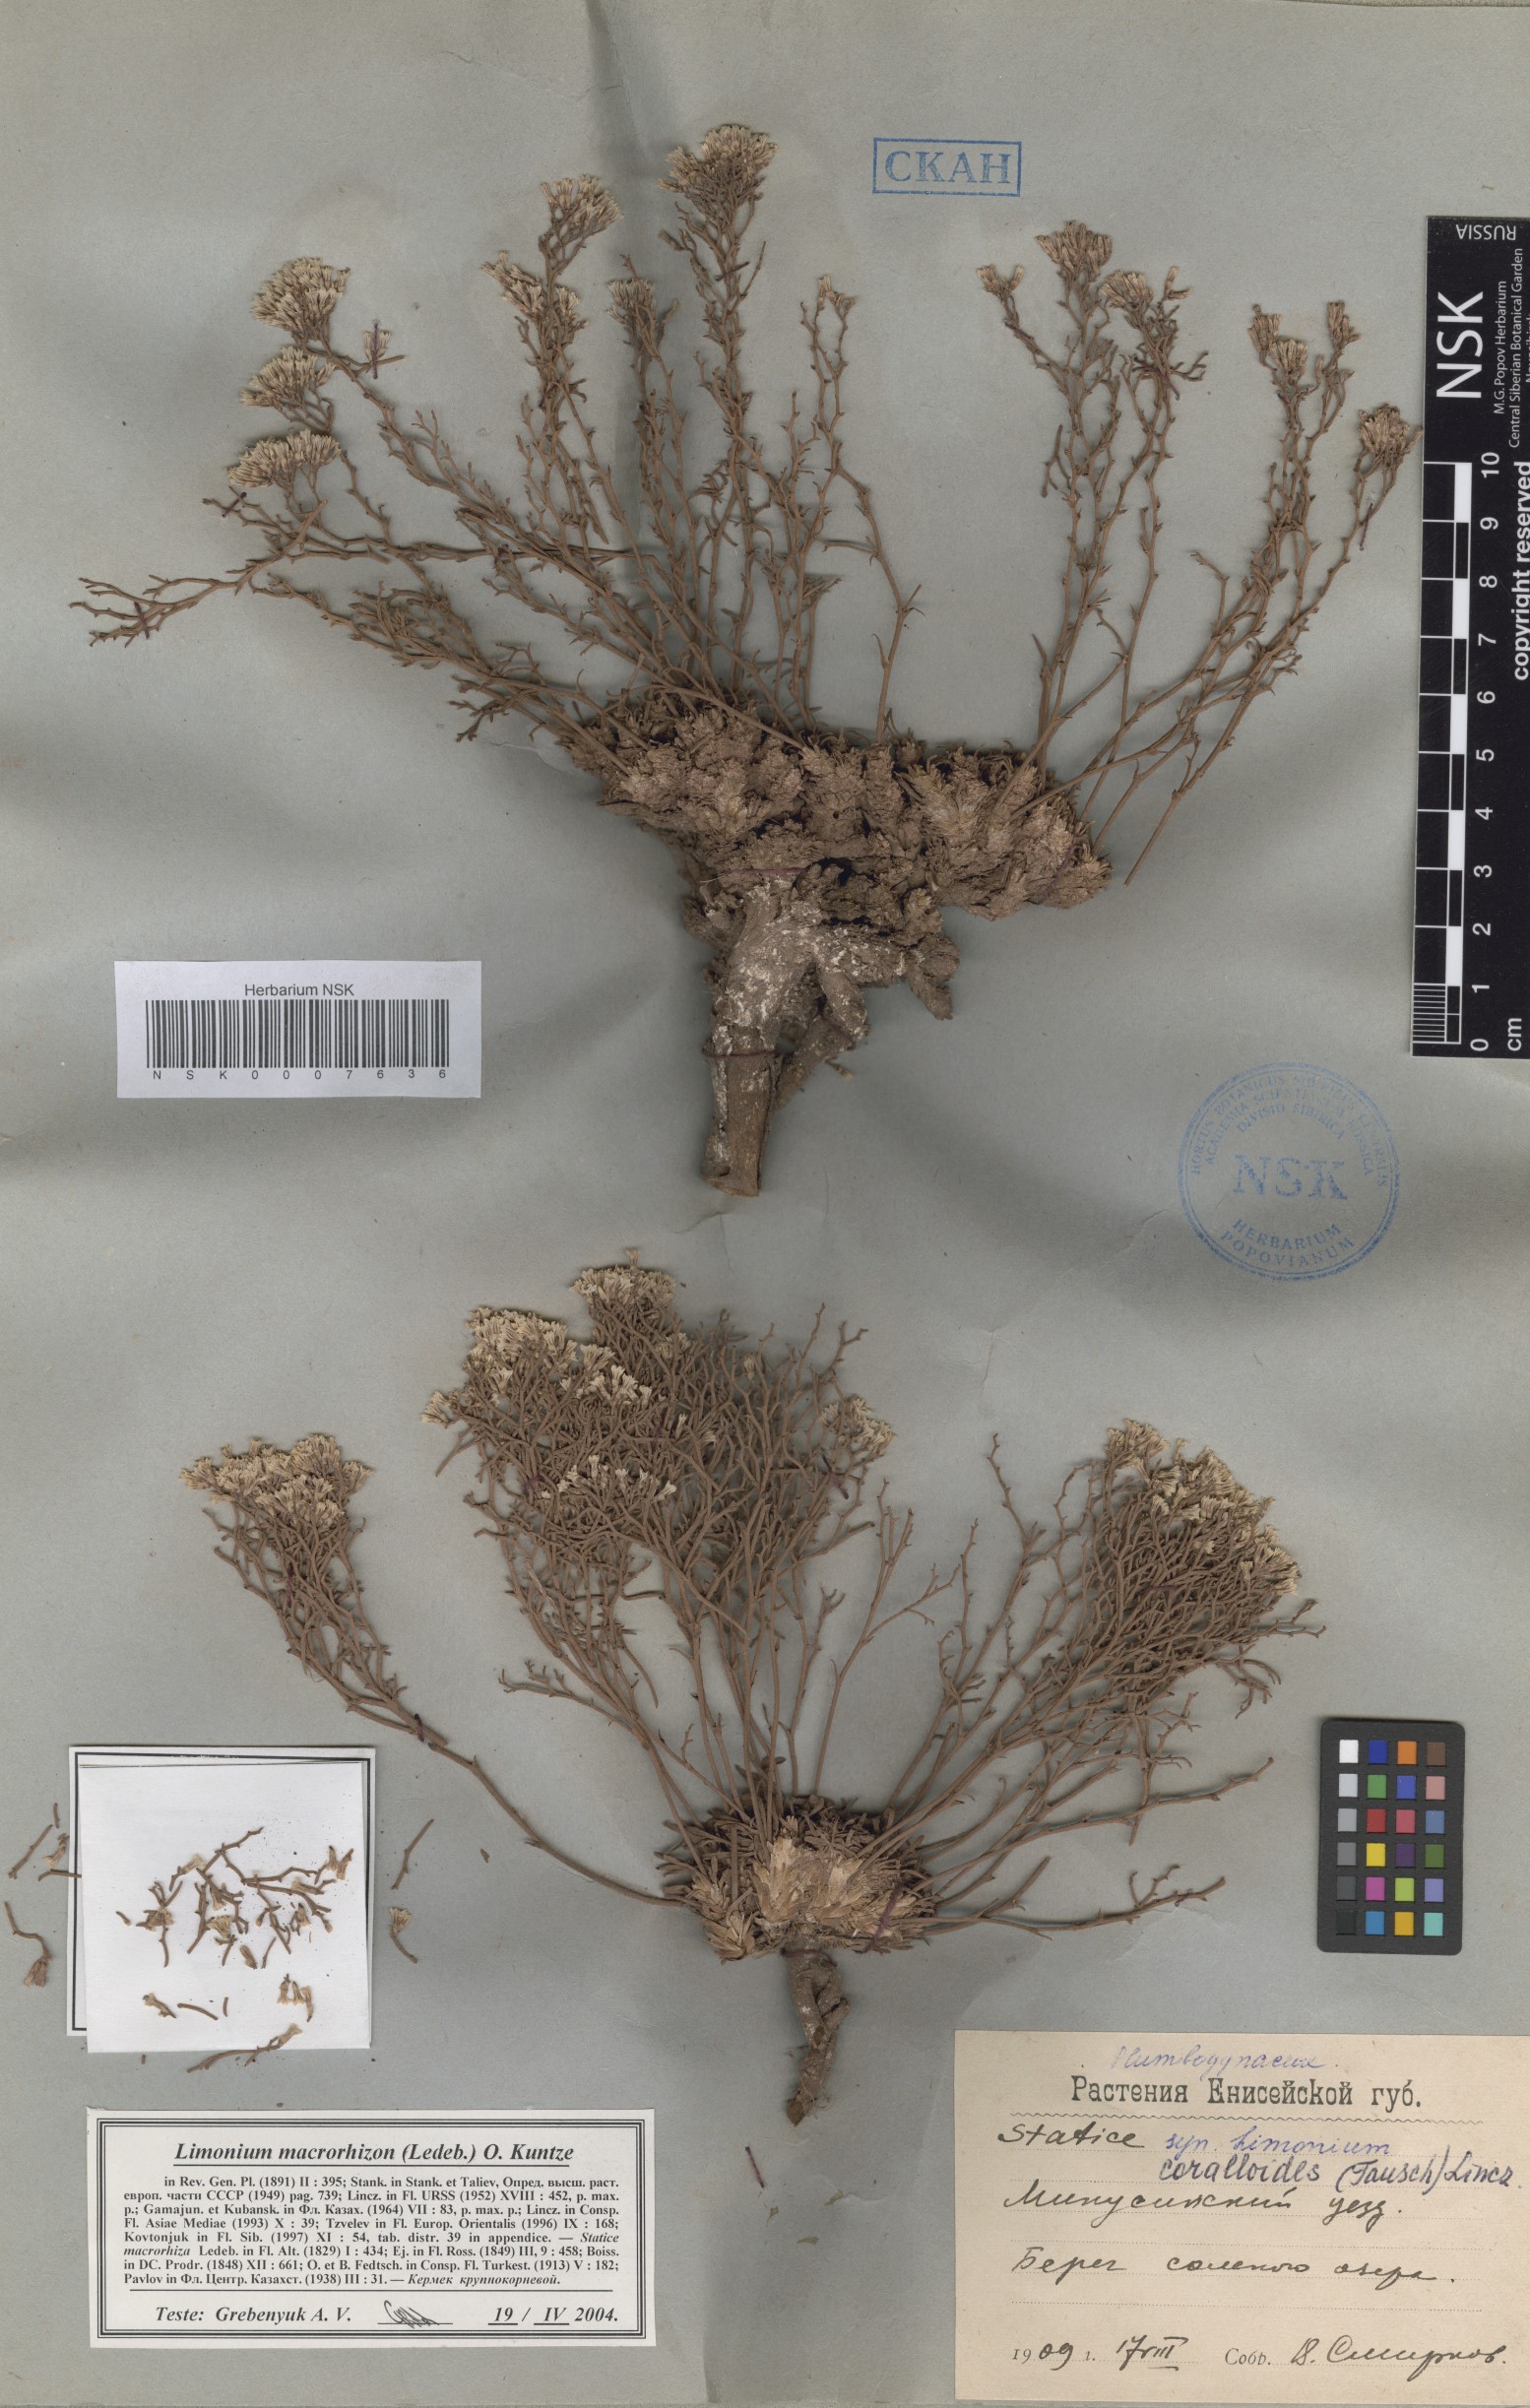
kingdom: Plantae
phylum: Tracheophyta
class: Magnoliopsida
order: Caryophyllales
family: Plumbaginaceae
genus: Limonium
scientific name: Limonium macrorhizum
